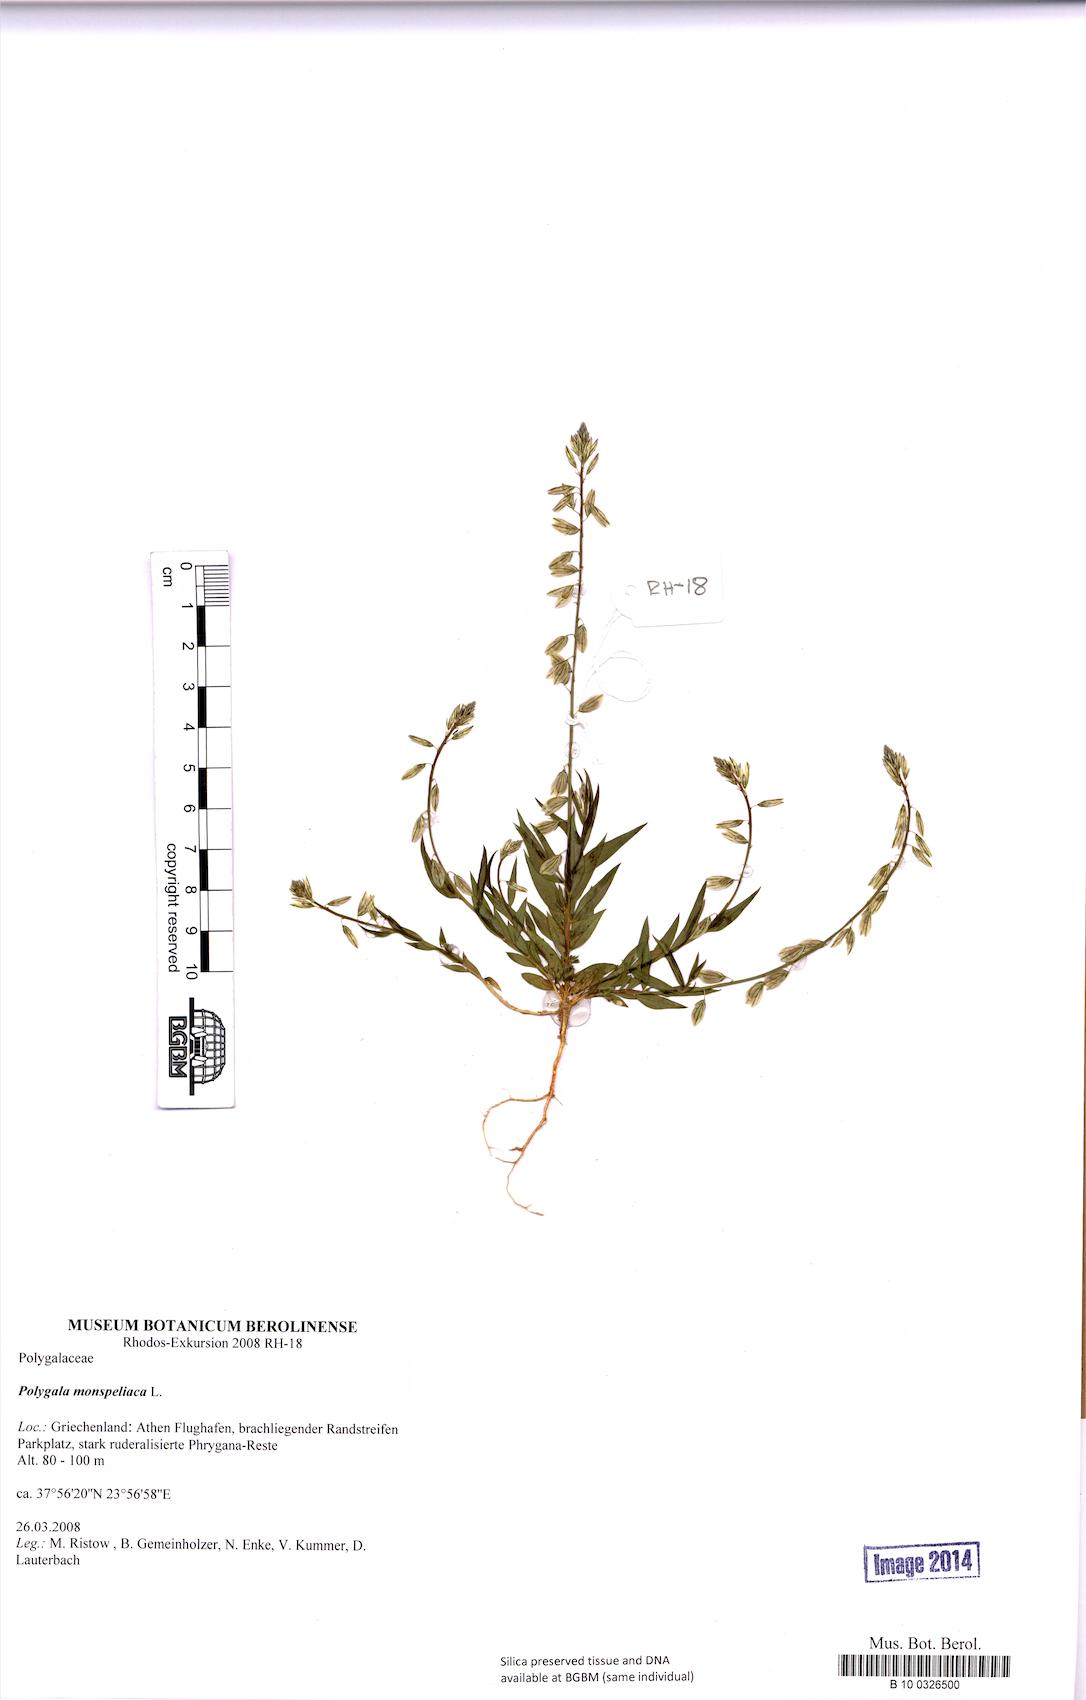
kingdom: Plantae
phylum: Tracheophyta
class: Magnoliopsida
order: Fabales
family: Polygalaceae
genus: Polygala
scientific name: Polygala monspeliaca
